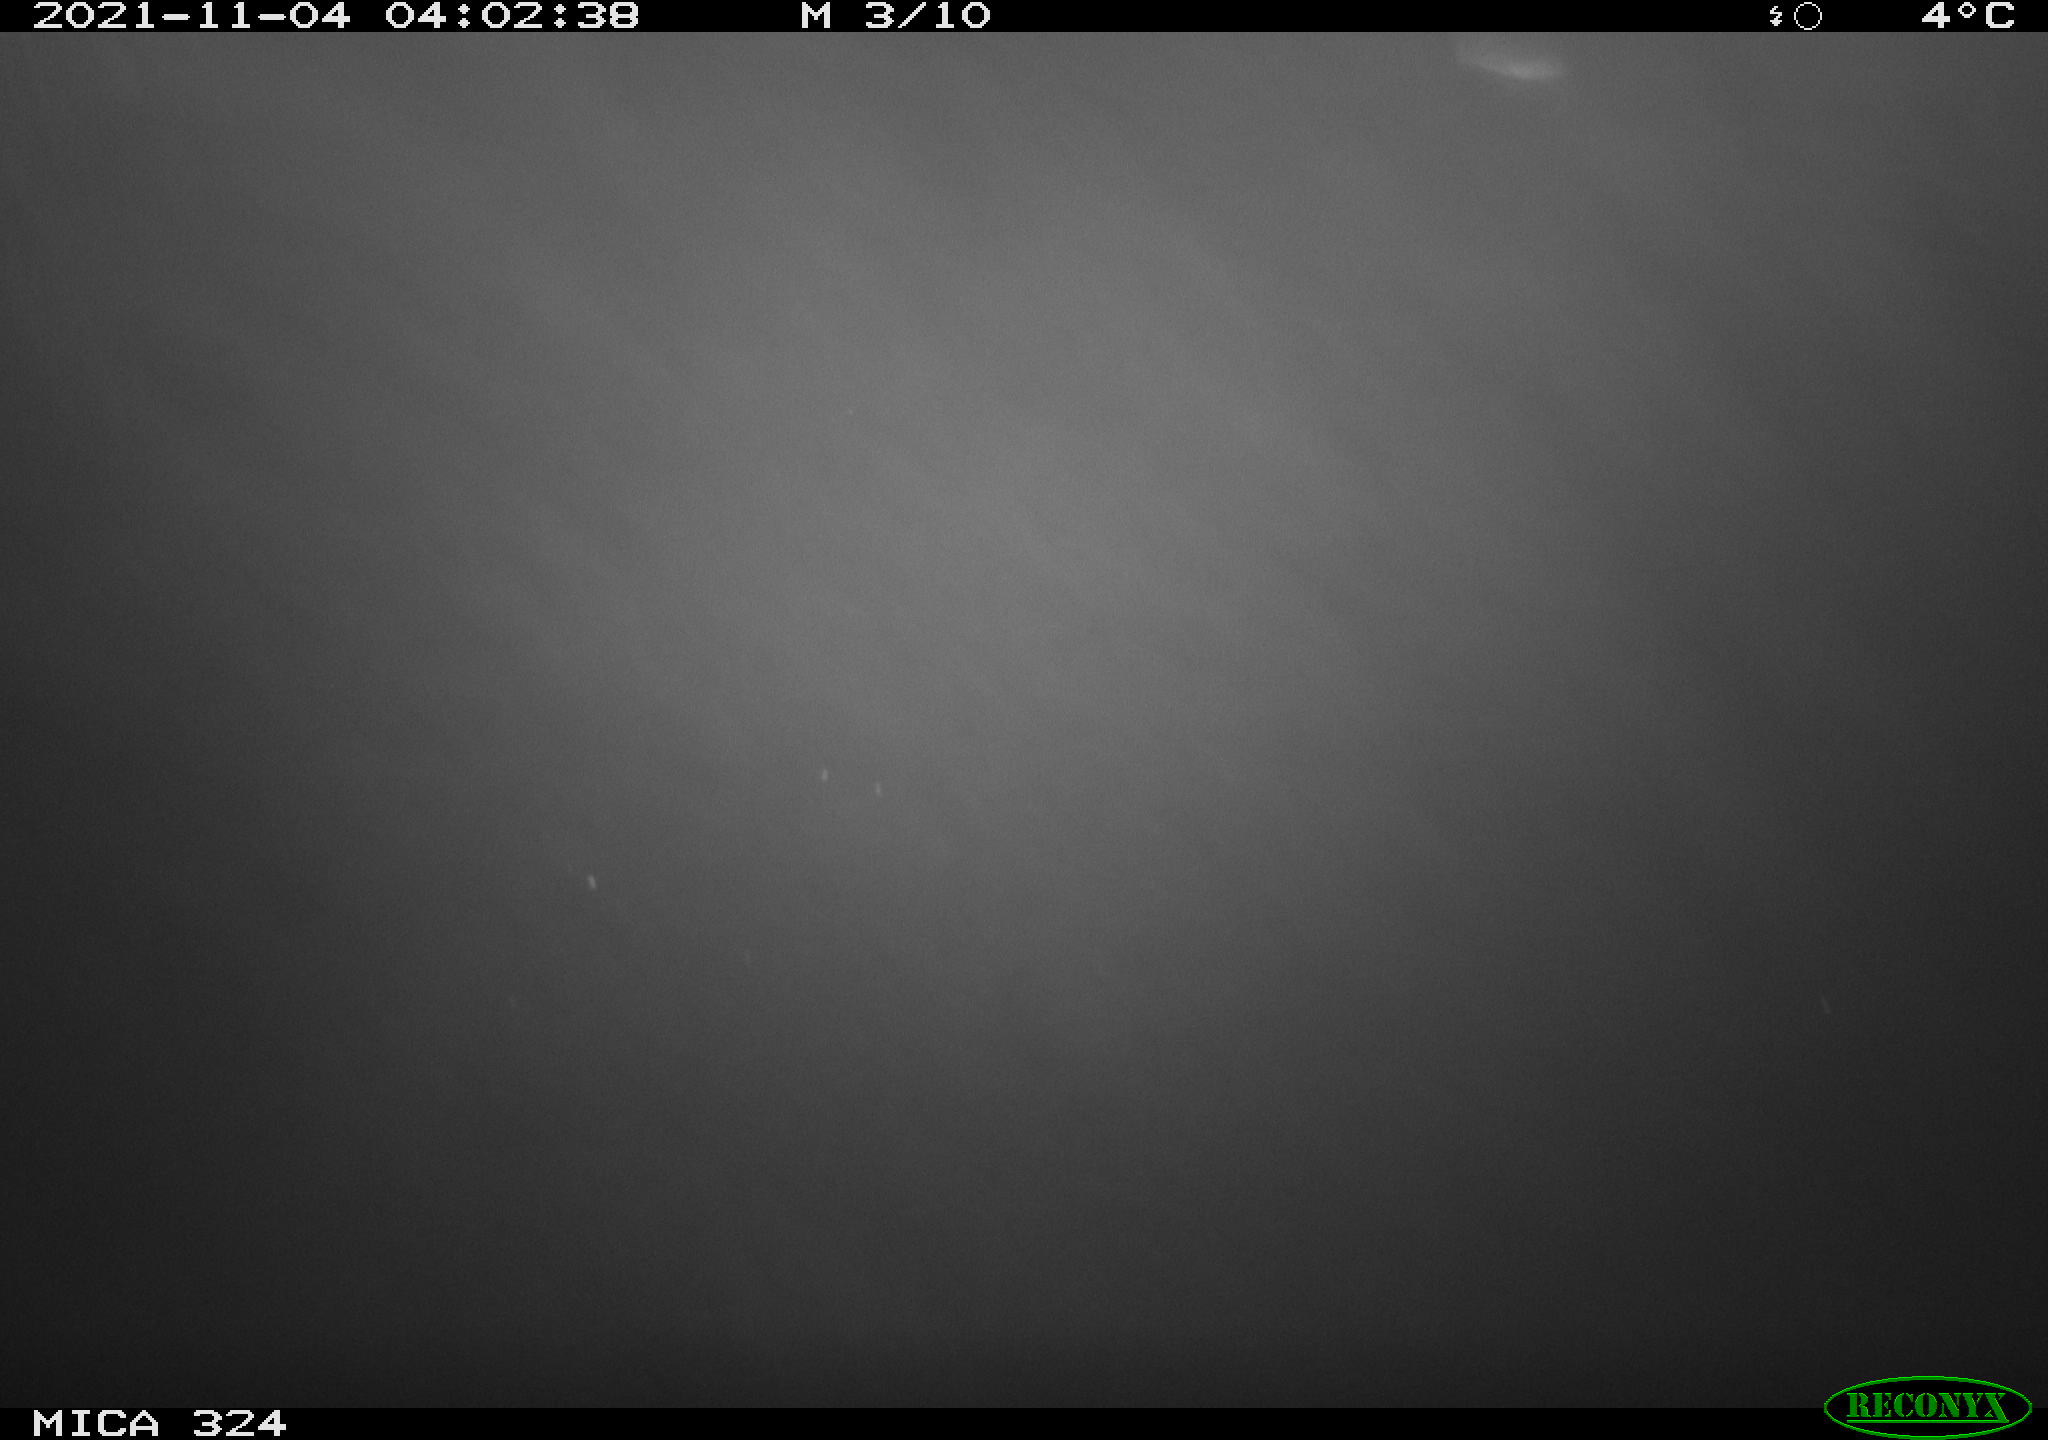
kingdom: Animalia
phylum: Chordata
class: Mammalia
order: Rodentia
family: Cricetidae
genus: Ondatra
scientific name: Ondatra zibethicus
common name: Muskrat
